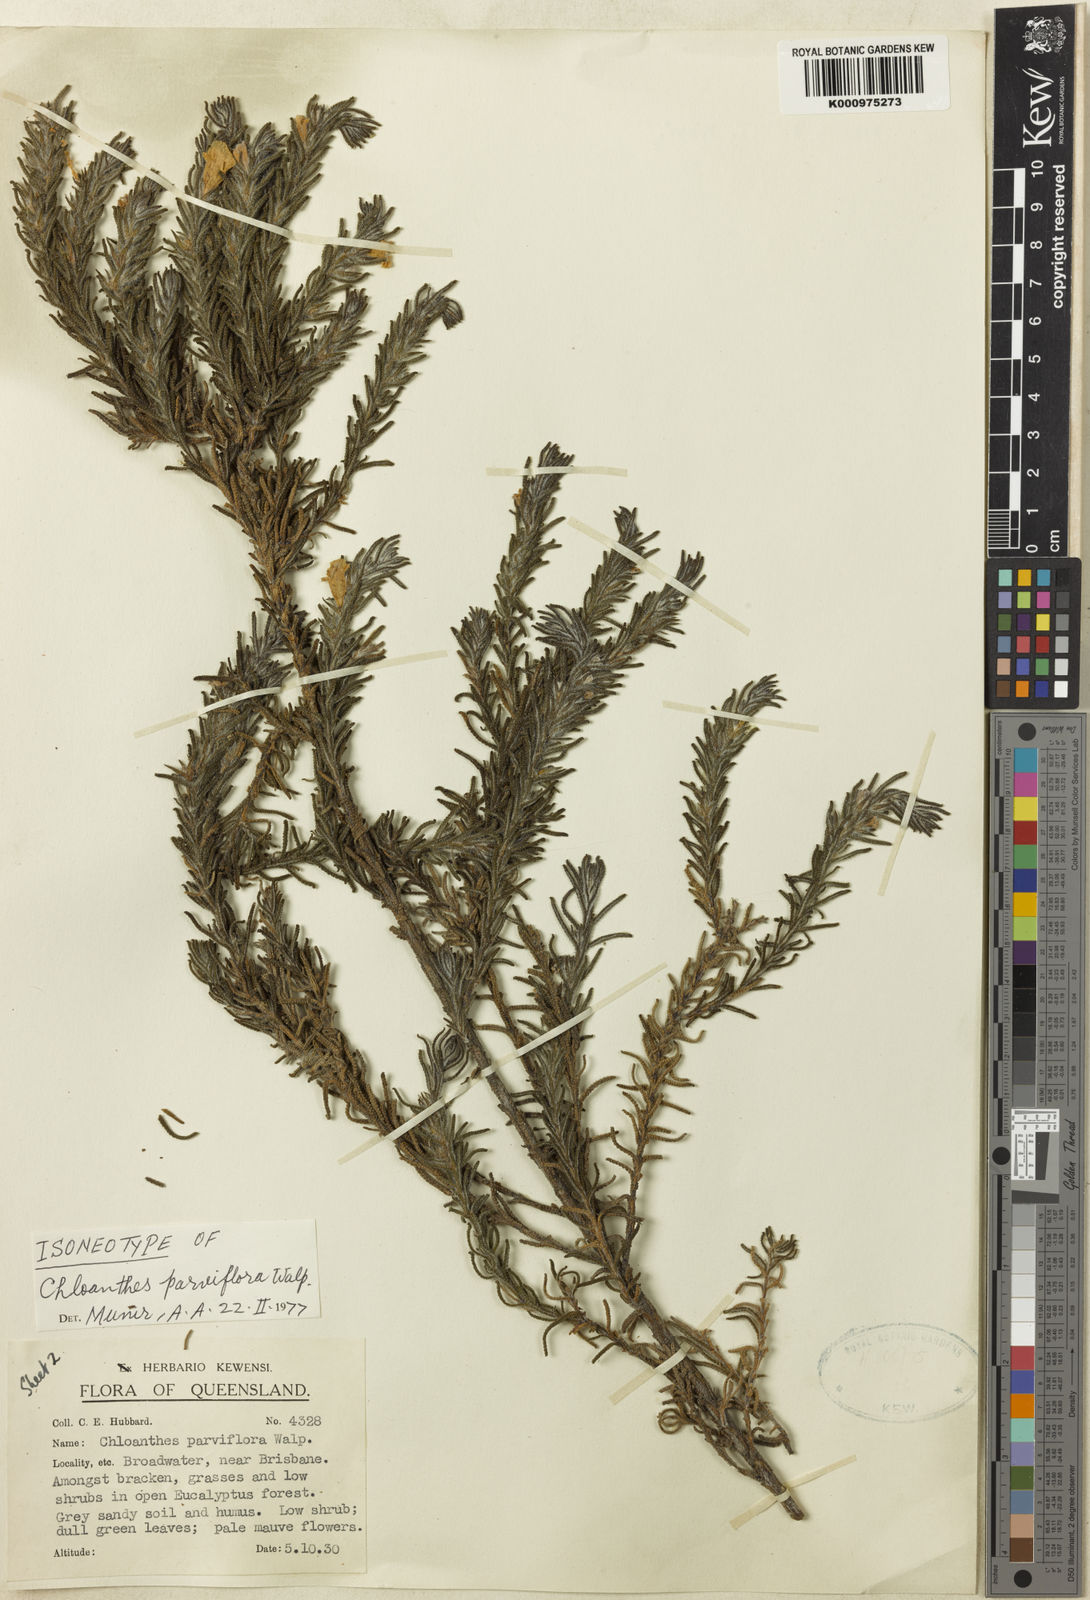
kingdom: Plantae
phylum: Tracheophyta
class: Magnoliopsida
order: Lamiales
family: Lamiaceae
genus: Chloanthes
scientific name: Chloanthes parviflora
